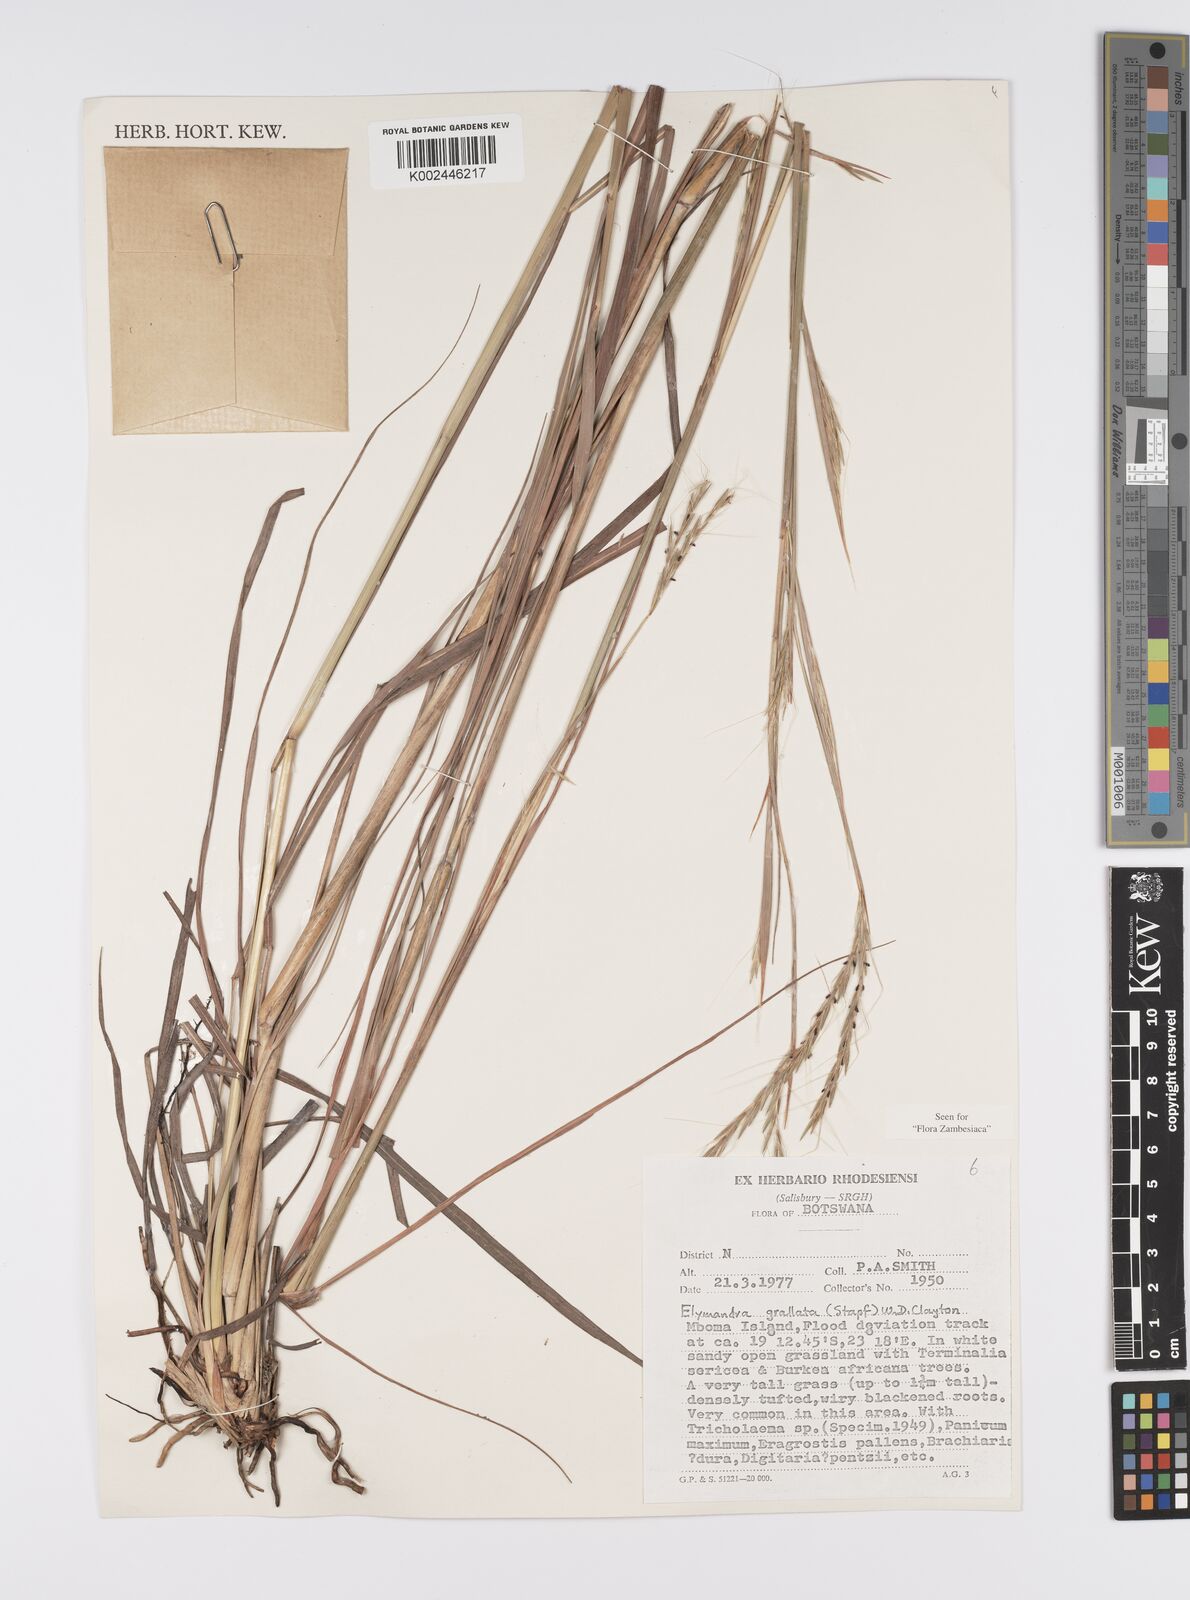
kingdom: Plantae
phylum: Tracheophyta
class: Liliopsida
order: Poales
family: Poaceae
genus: Elymandra
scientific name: Elymandra grallata
